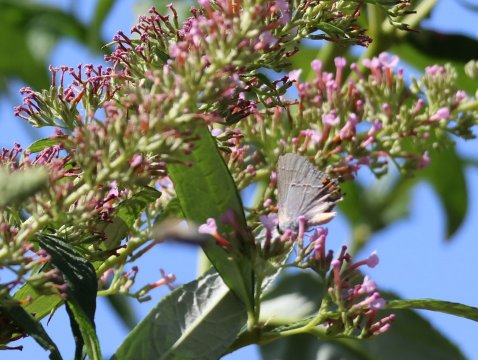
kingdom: Animalia
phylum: Arthropoda
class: Insecta
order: Lepidoptera
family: Lycaenidae
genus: Strymon
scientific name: Strymon melinus
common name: Gray Hairstreak
